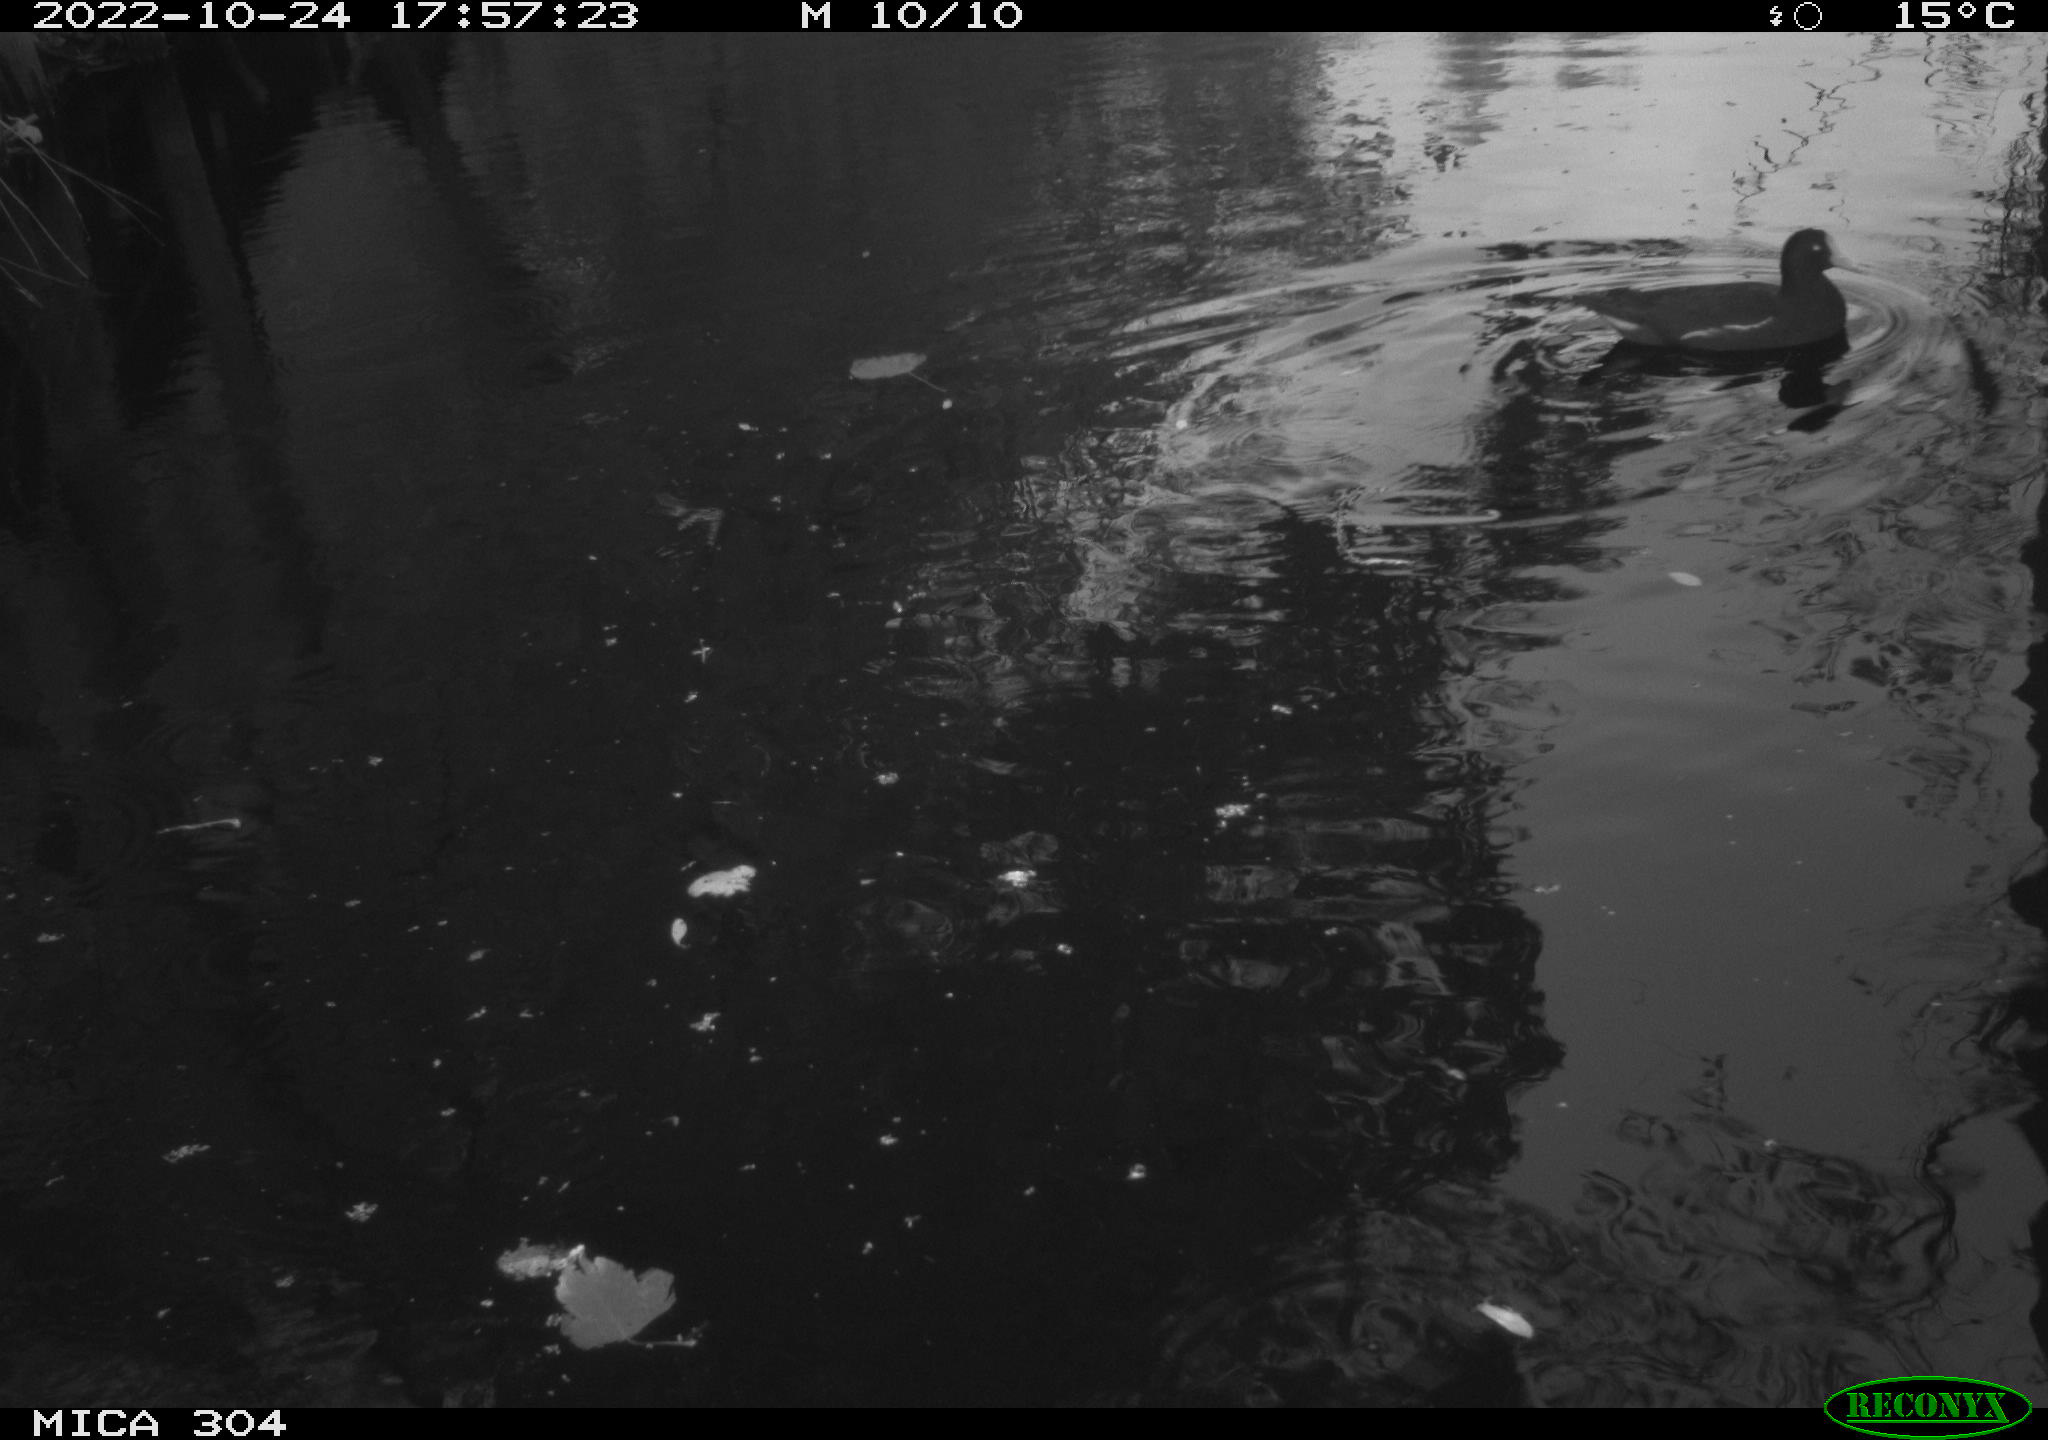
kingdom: Animalia
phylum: Chordata
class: Aves
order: Gruiformes
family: Rallidae
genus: Fulica
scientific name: Fulica atra
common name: Eurasian coot
